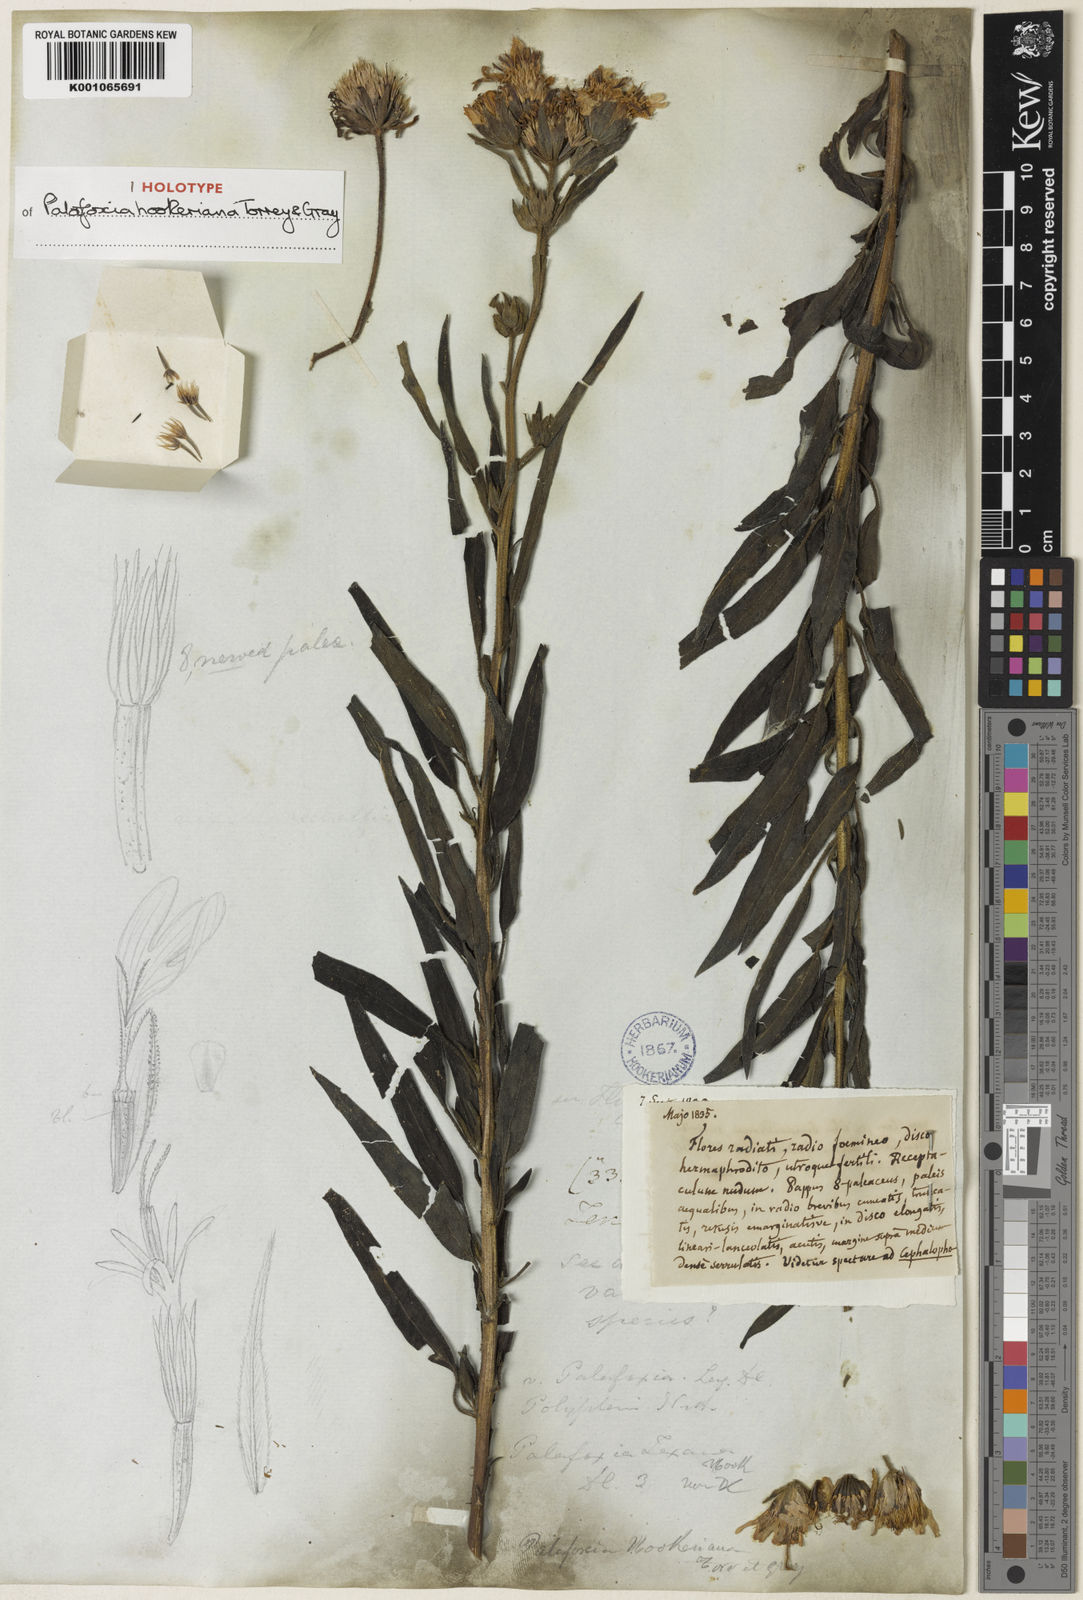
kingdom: Plantae
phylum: Tracheophyta
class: Magnoliopsida
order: Asterales
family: Asteraceae
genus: Palafoxia
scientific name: Palafoxia hookeriana
